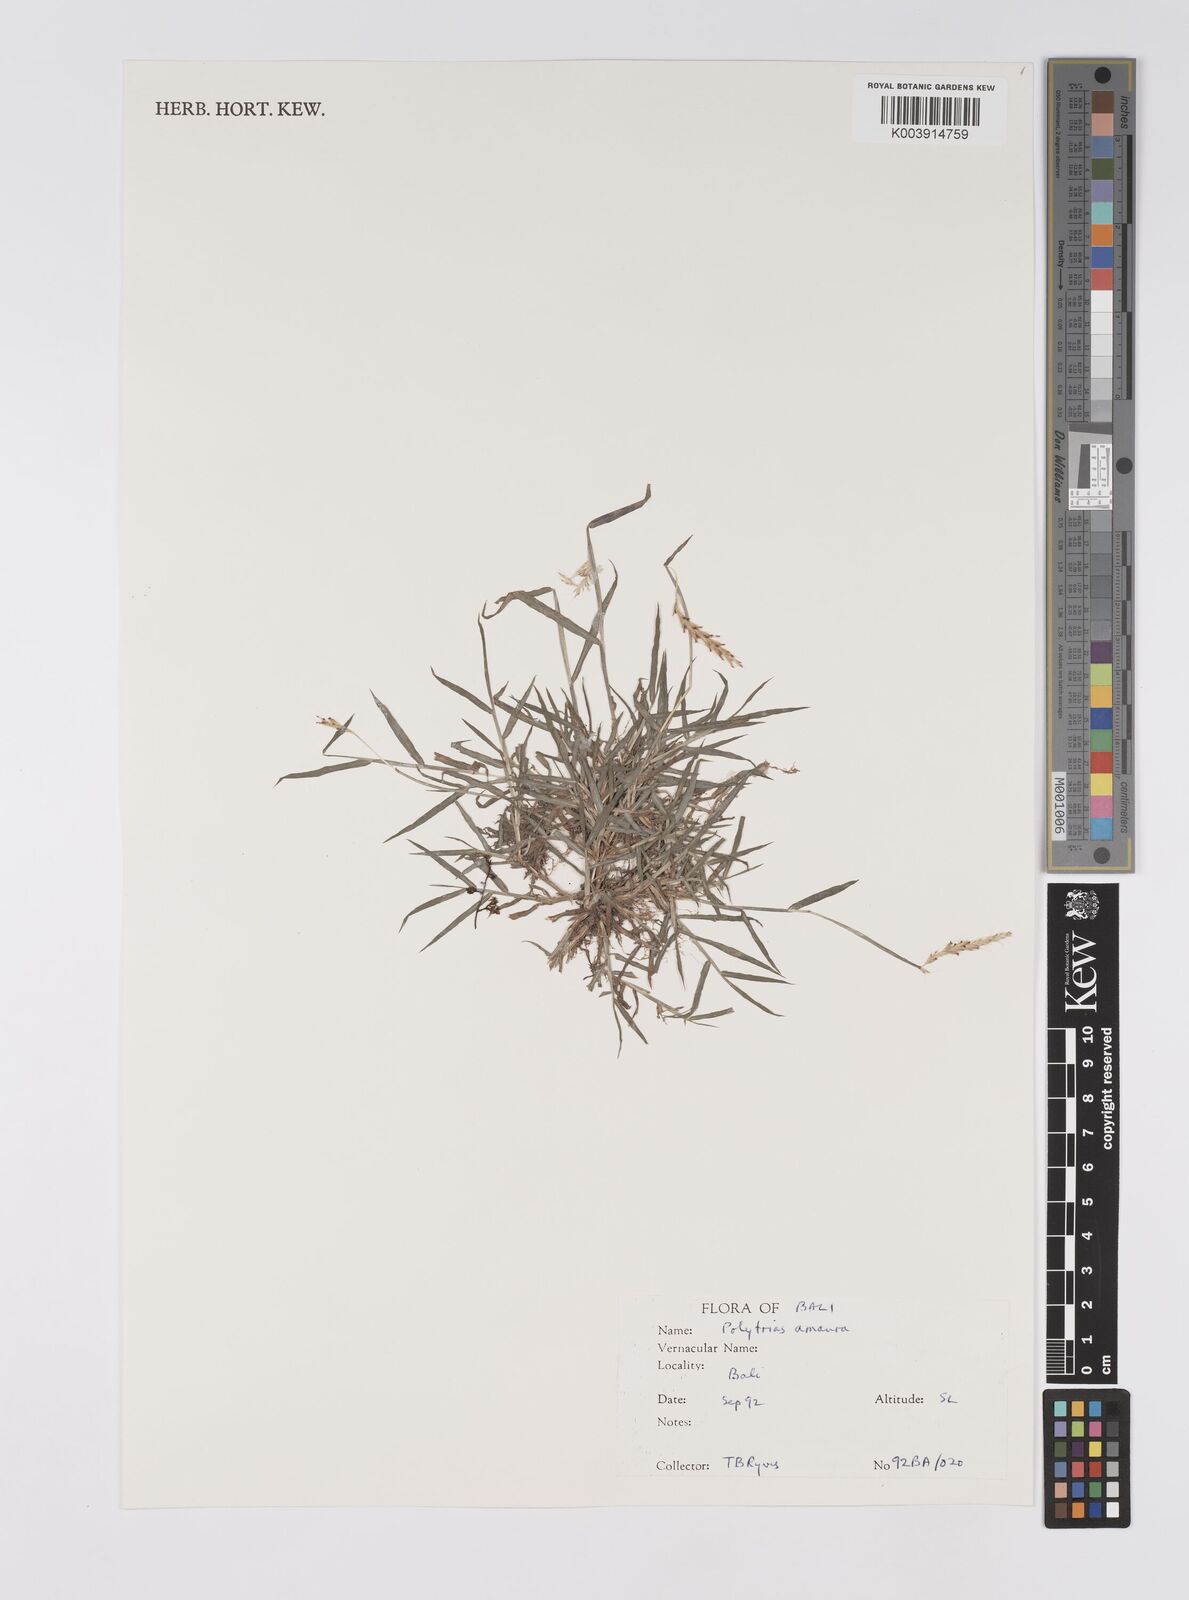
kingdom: Plantae
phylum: Tracheophyta
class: Liliopsida
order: Poales
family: Poaceae
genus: Polytrias
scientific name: Polytrias
